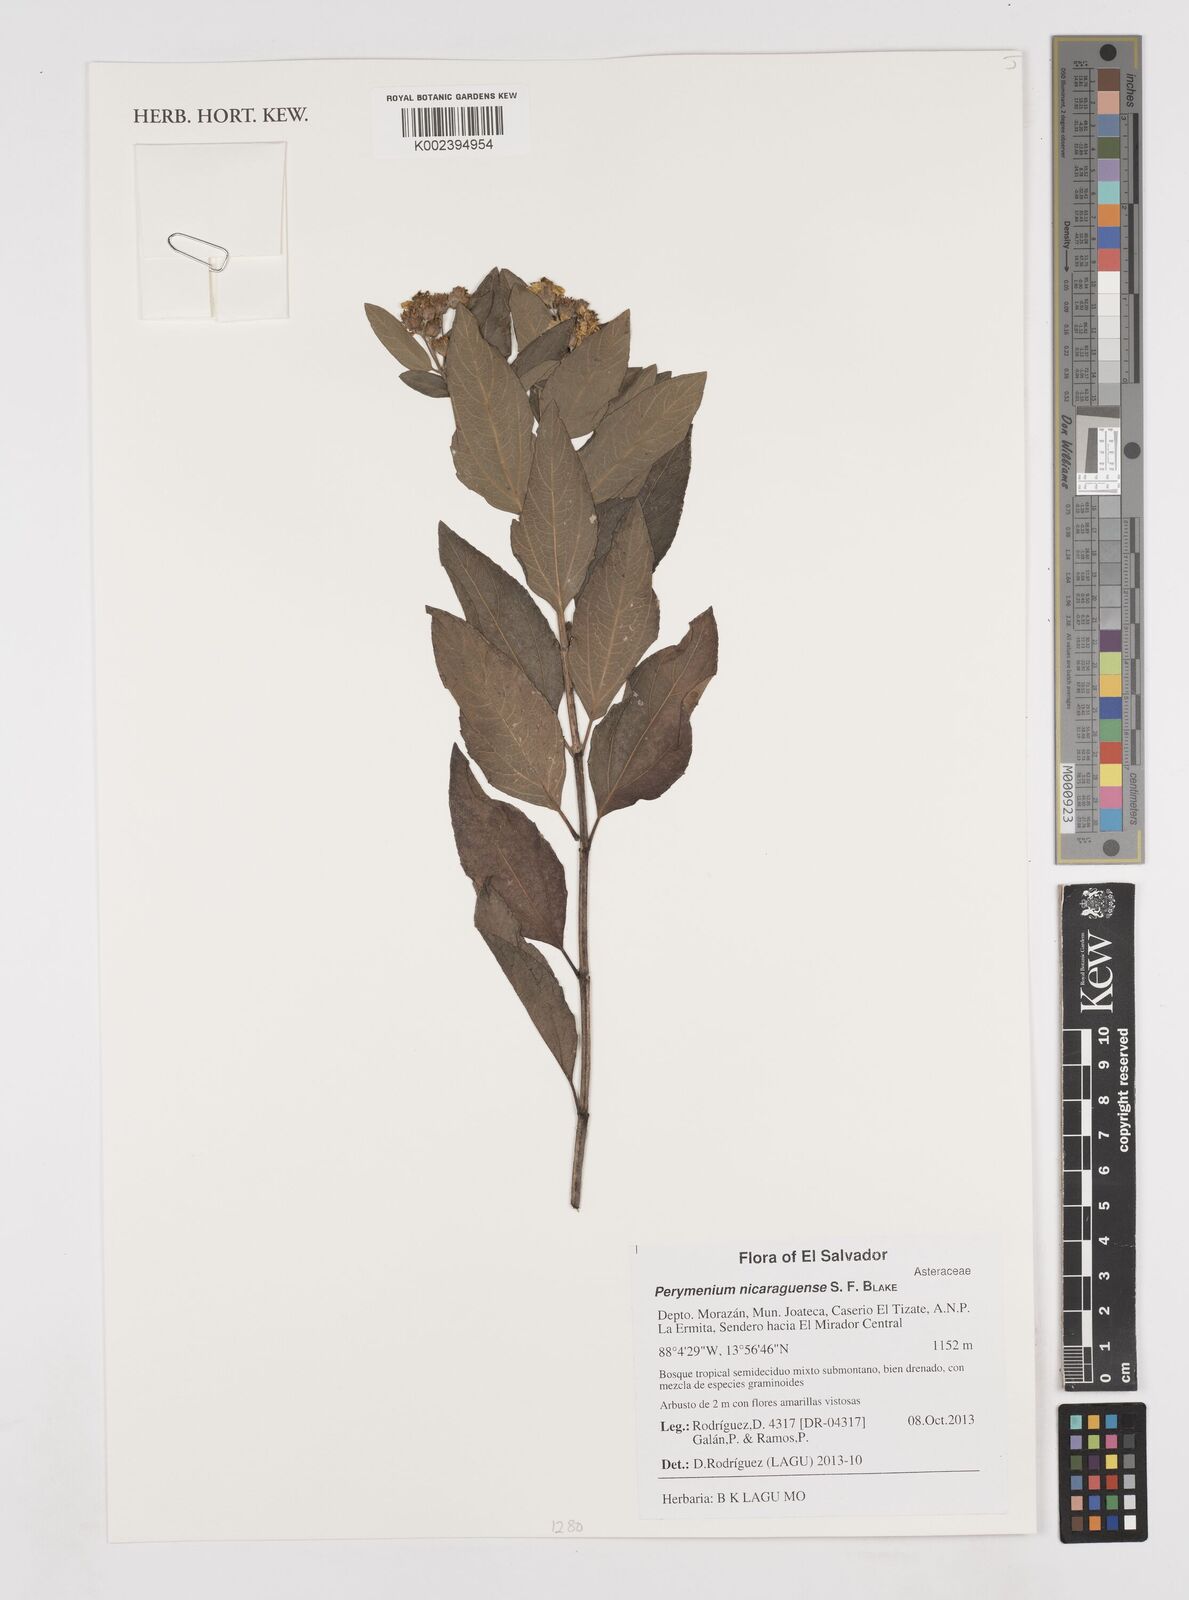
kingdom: Plantae
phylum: Tracheophyta
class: Magnoliopsida
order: Asterales
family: Asteraceae
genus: Perymenium
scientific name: Perymenium nicaraguense
